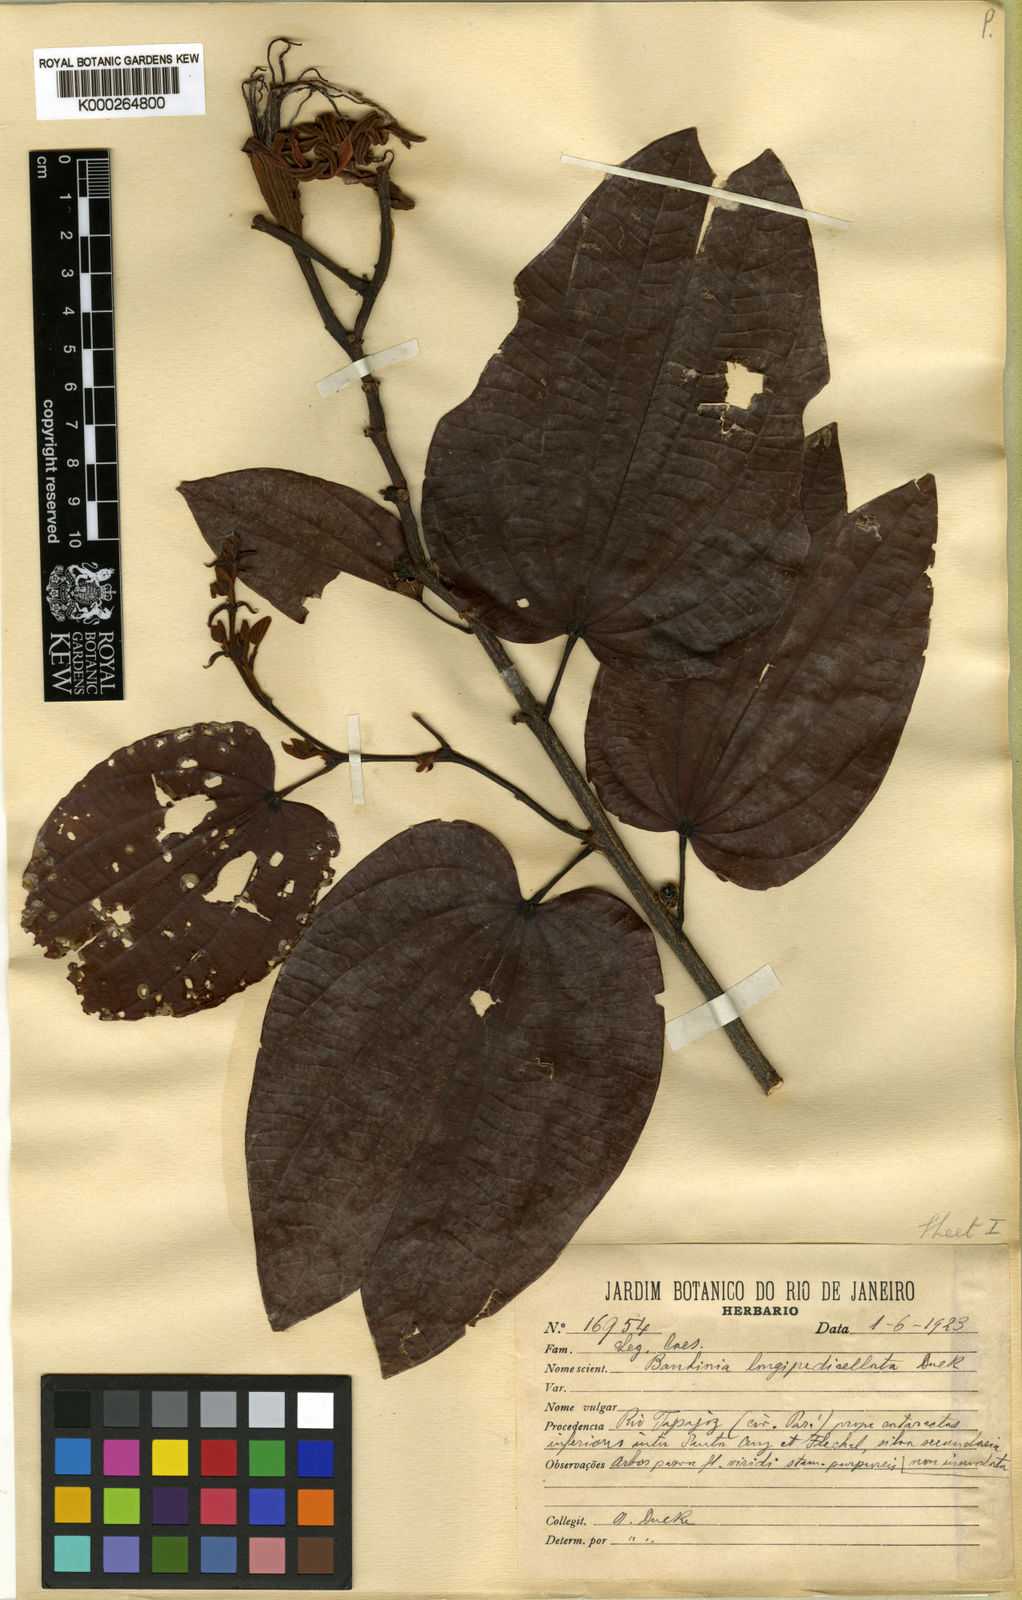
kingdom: Plantae
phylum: Tracheophyta
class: Magnoliopsida
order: Fabales
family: Fabaceae
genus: Bauhinia
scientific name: Bauhinia longipedicellata
